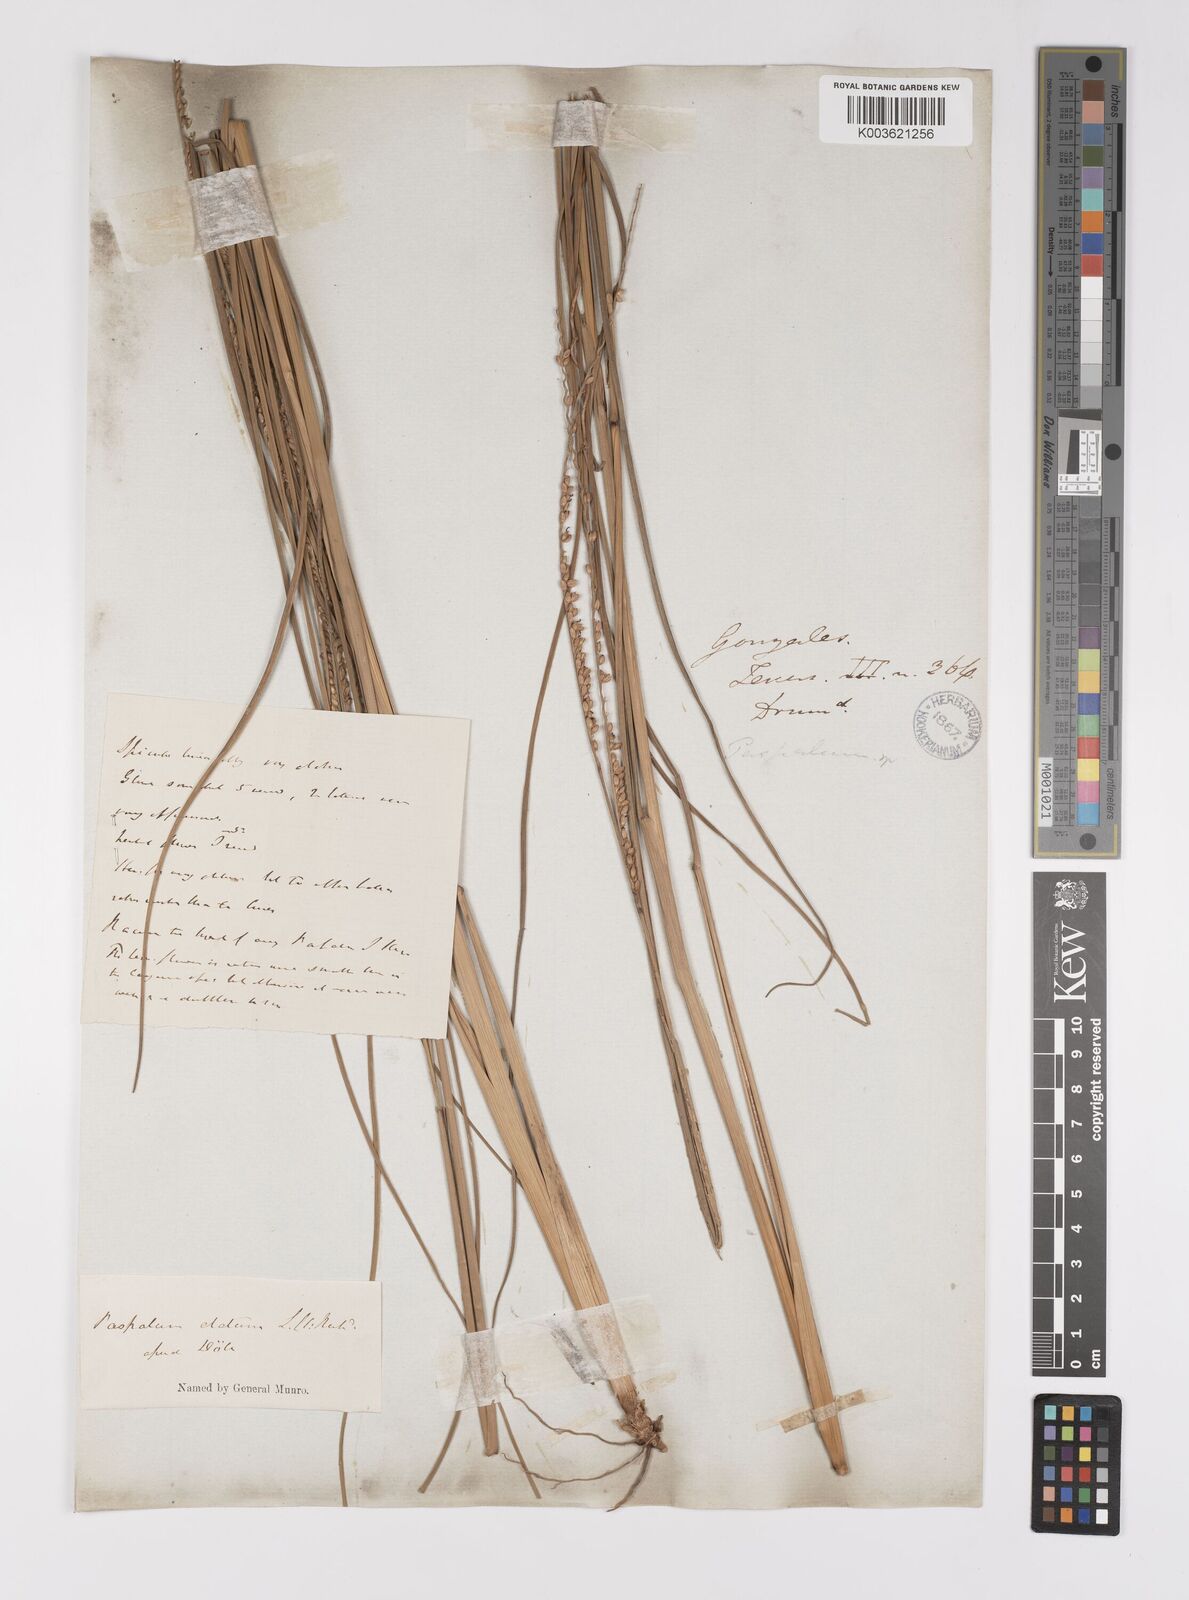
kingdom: Plantae
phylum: Tracheophyta
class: Liliopsida
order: Poales
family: Poaceae
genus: Paspalum
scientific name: Paspalum monostachyum
